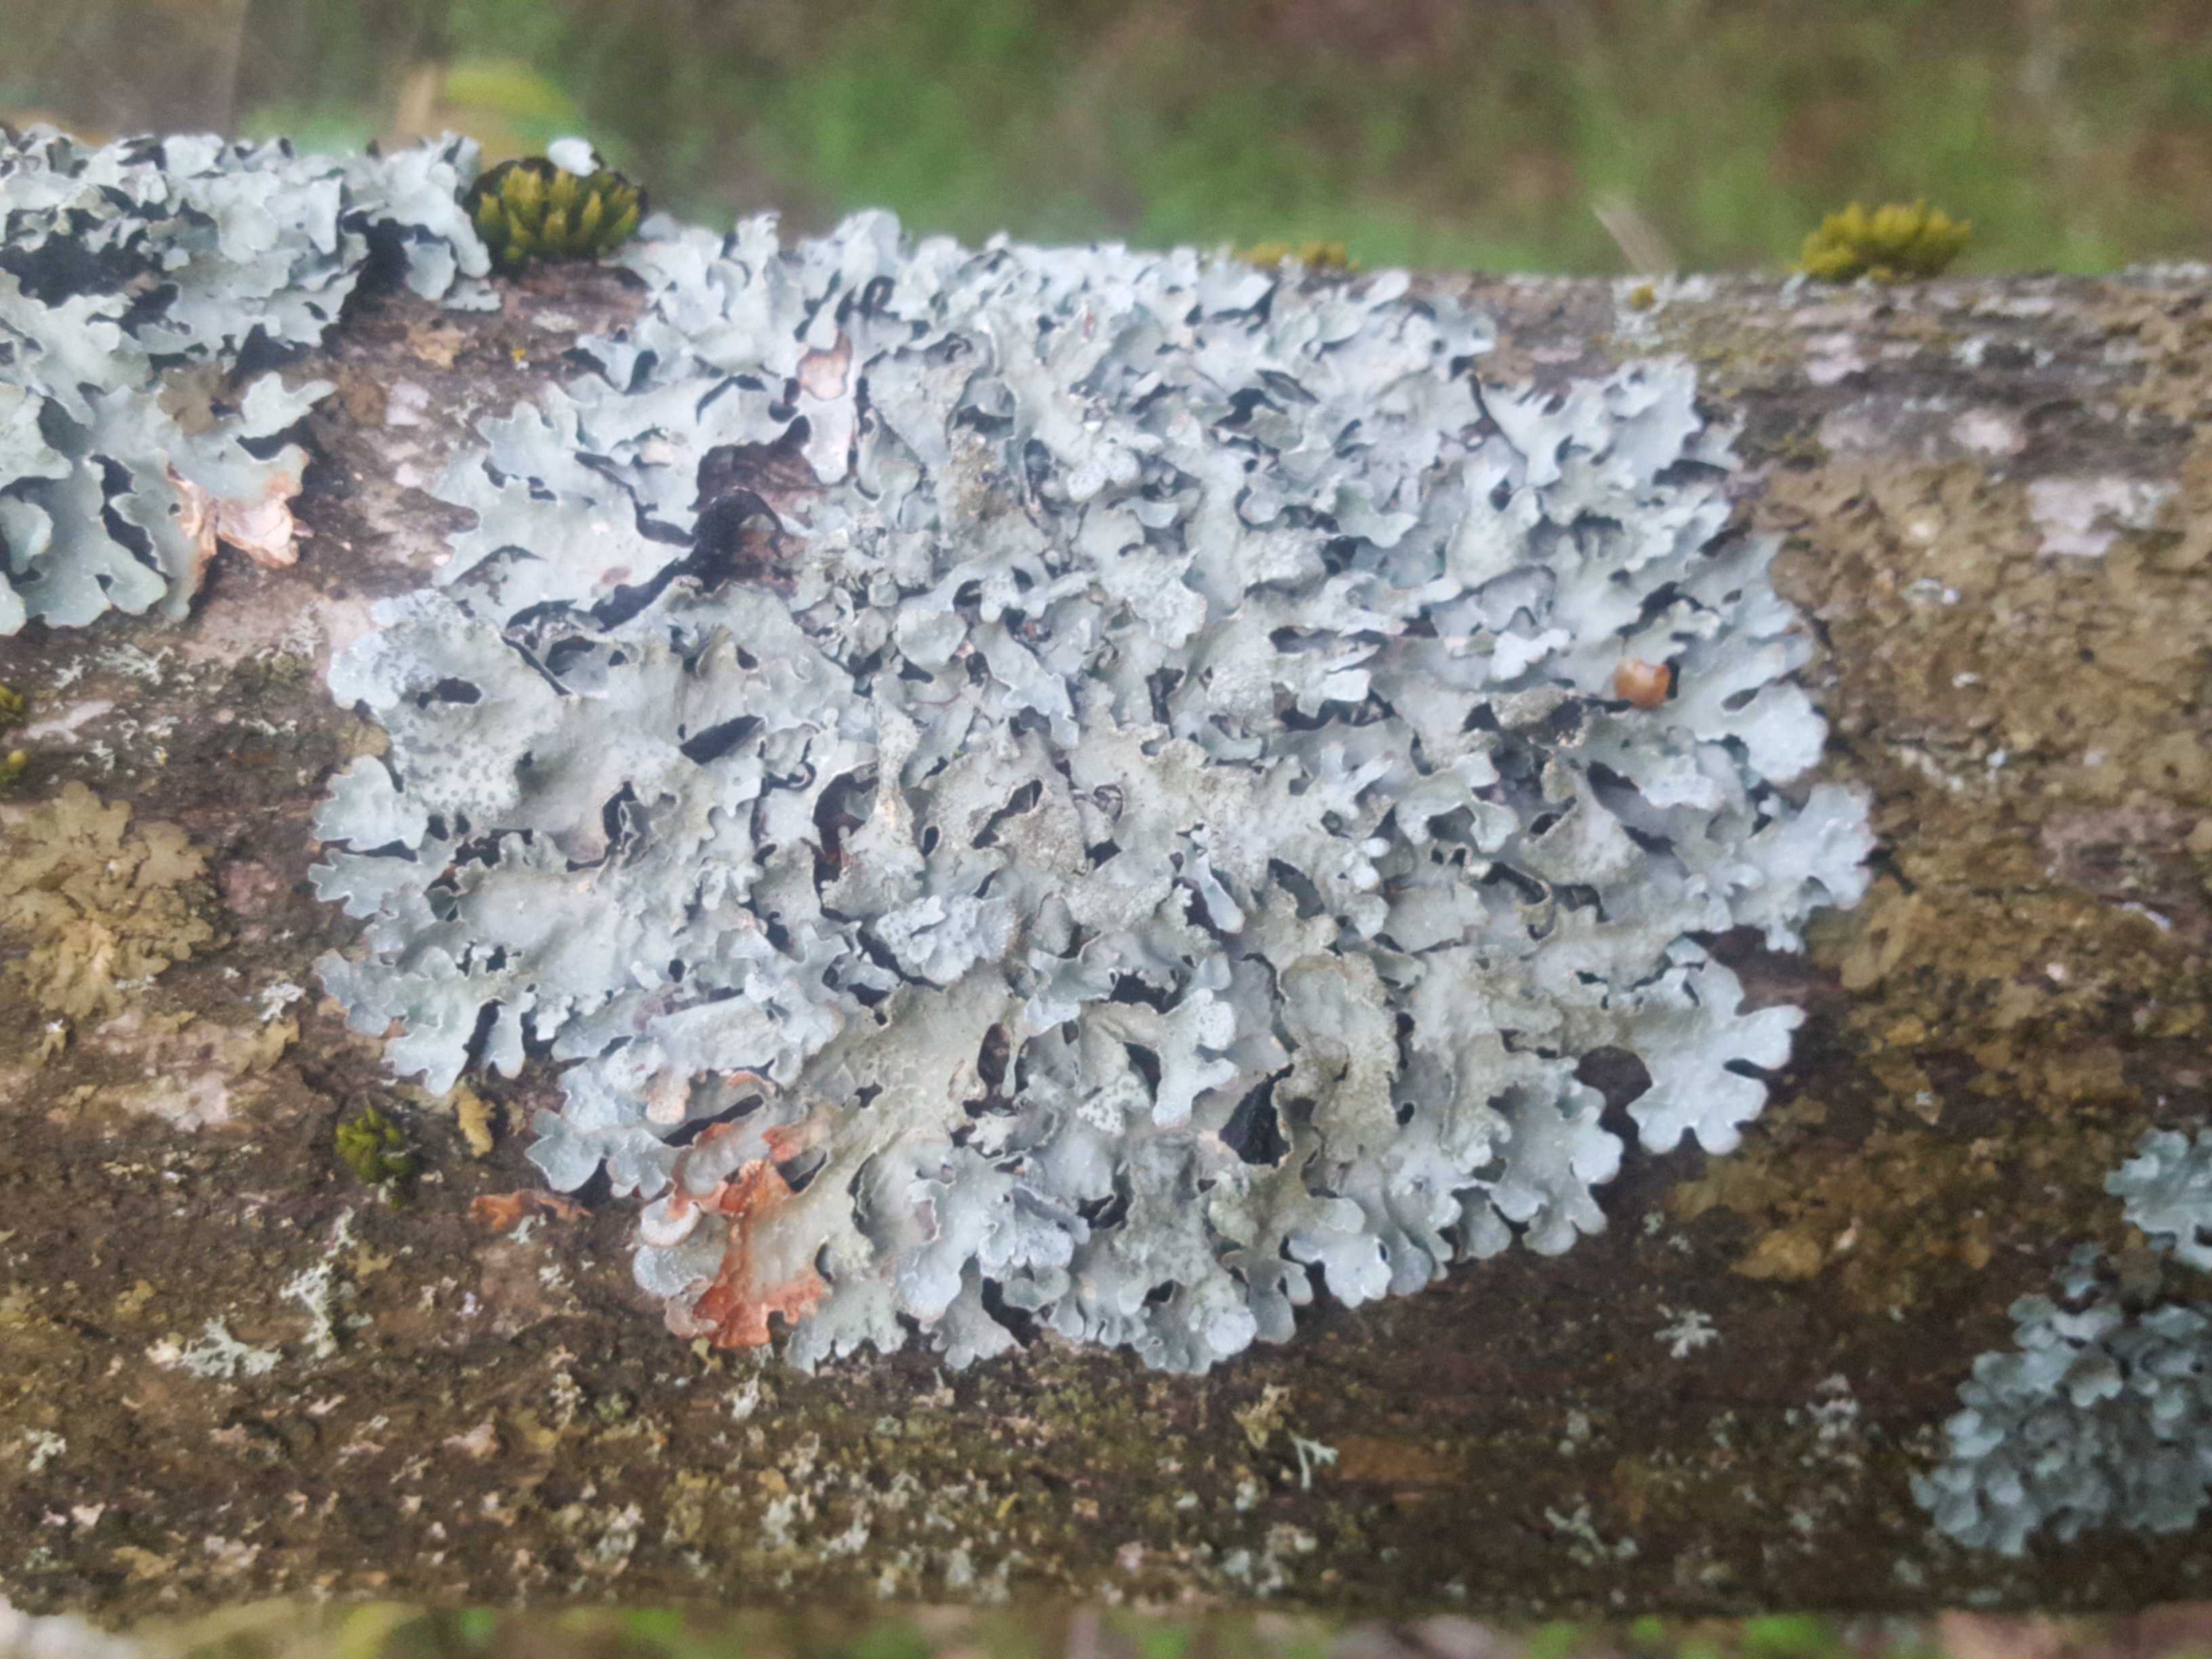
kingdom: Fungi
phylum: Ascomycota
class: Lecanoromycetes
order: Lecanorales
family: Parmeliaceae
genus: Parmelia
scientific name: Parmelia sulcata
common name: rynket skållav
